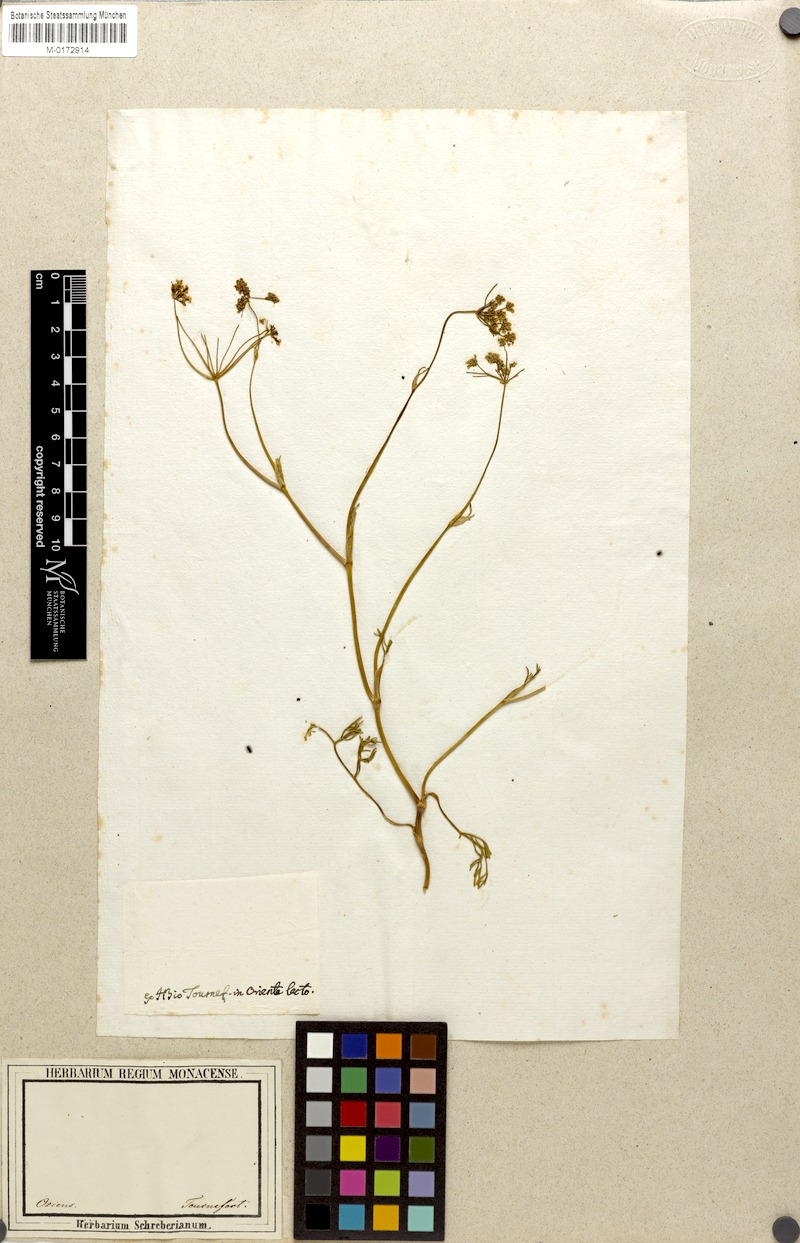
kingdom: Plantae
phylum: Tracheophyta
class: Magnoliopsida
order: Apiales
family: Apiaceae
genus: Seseli
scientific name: Seseli
